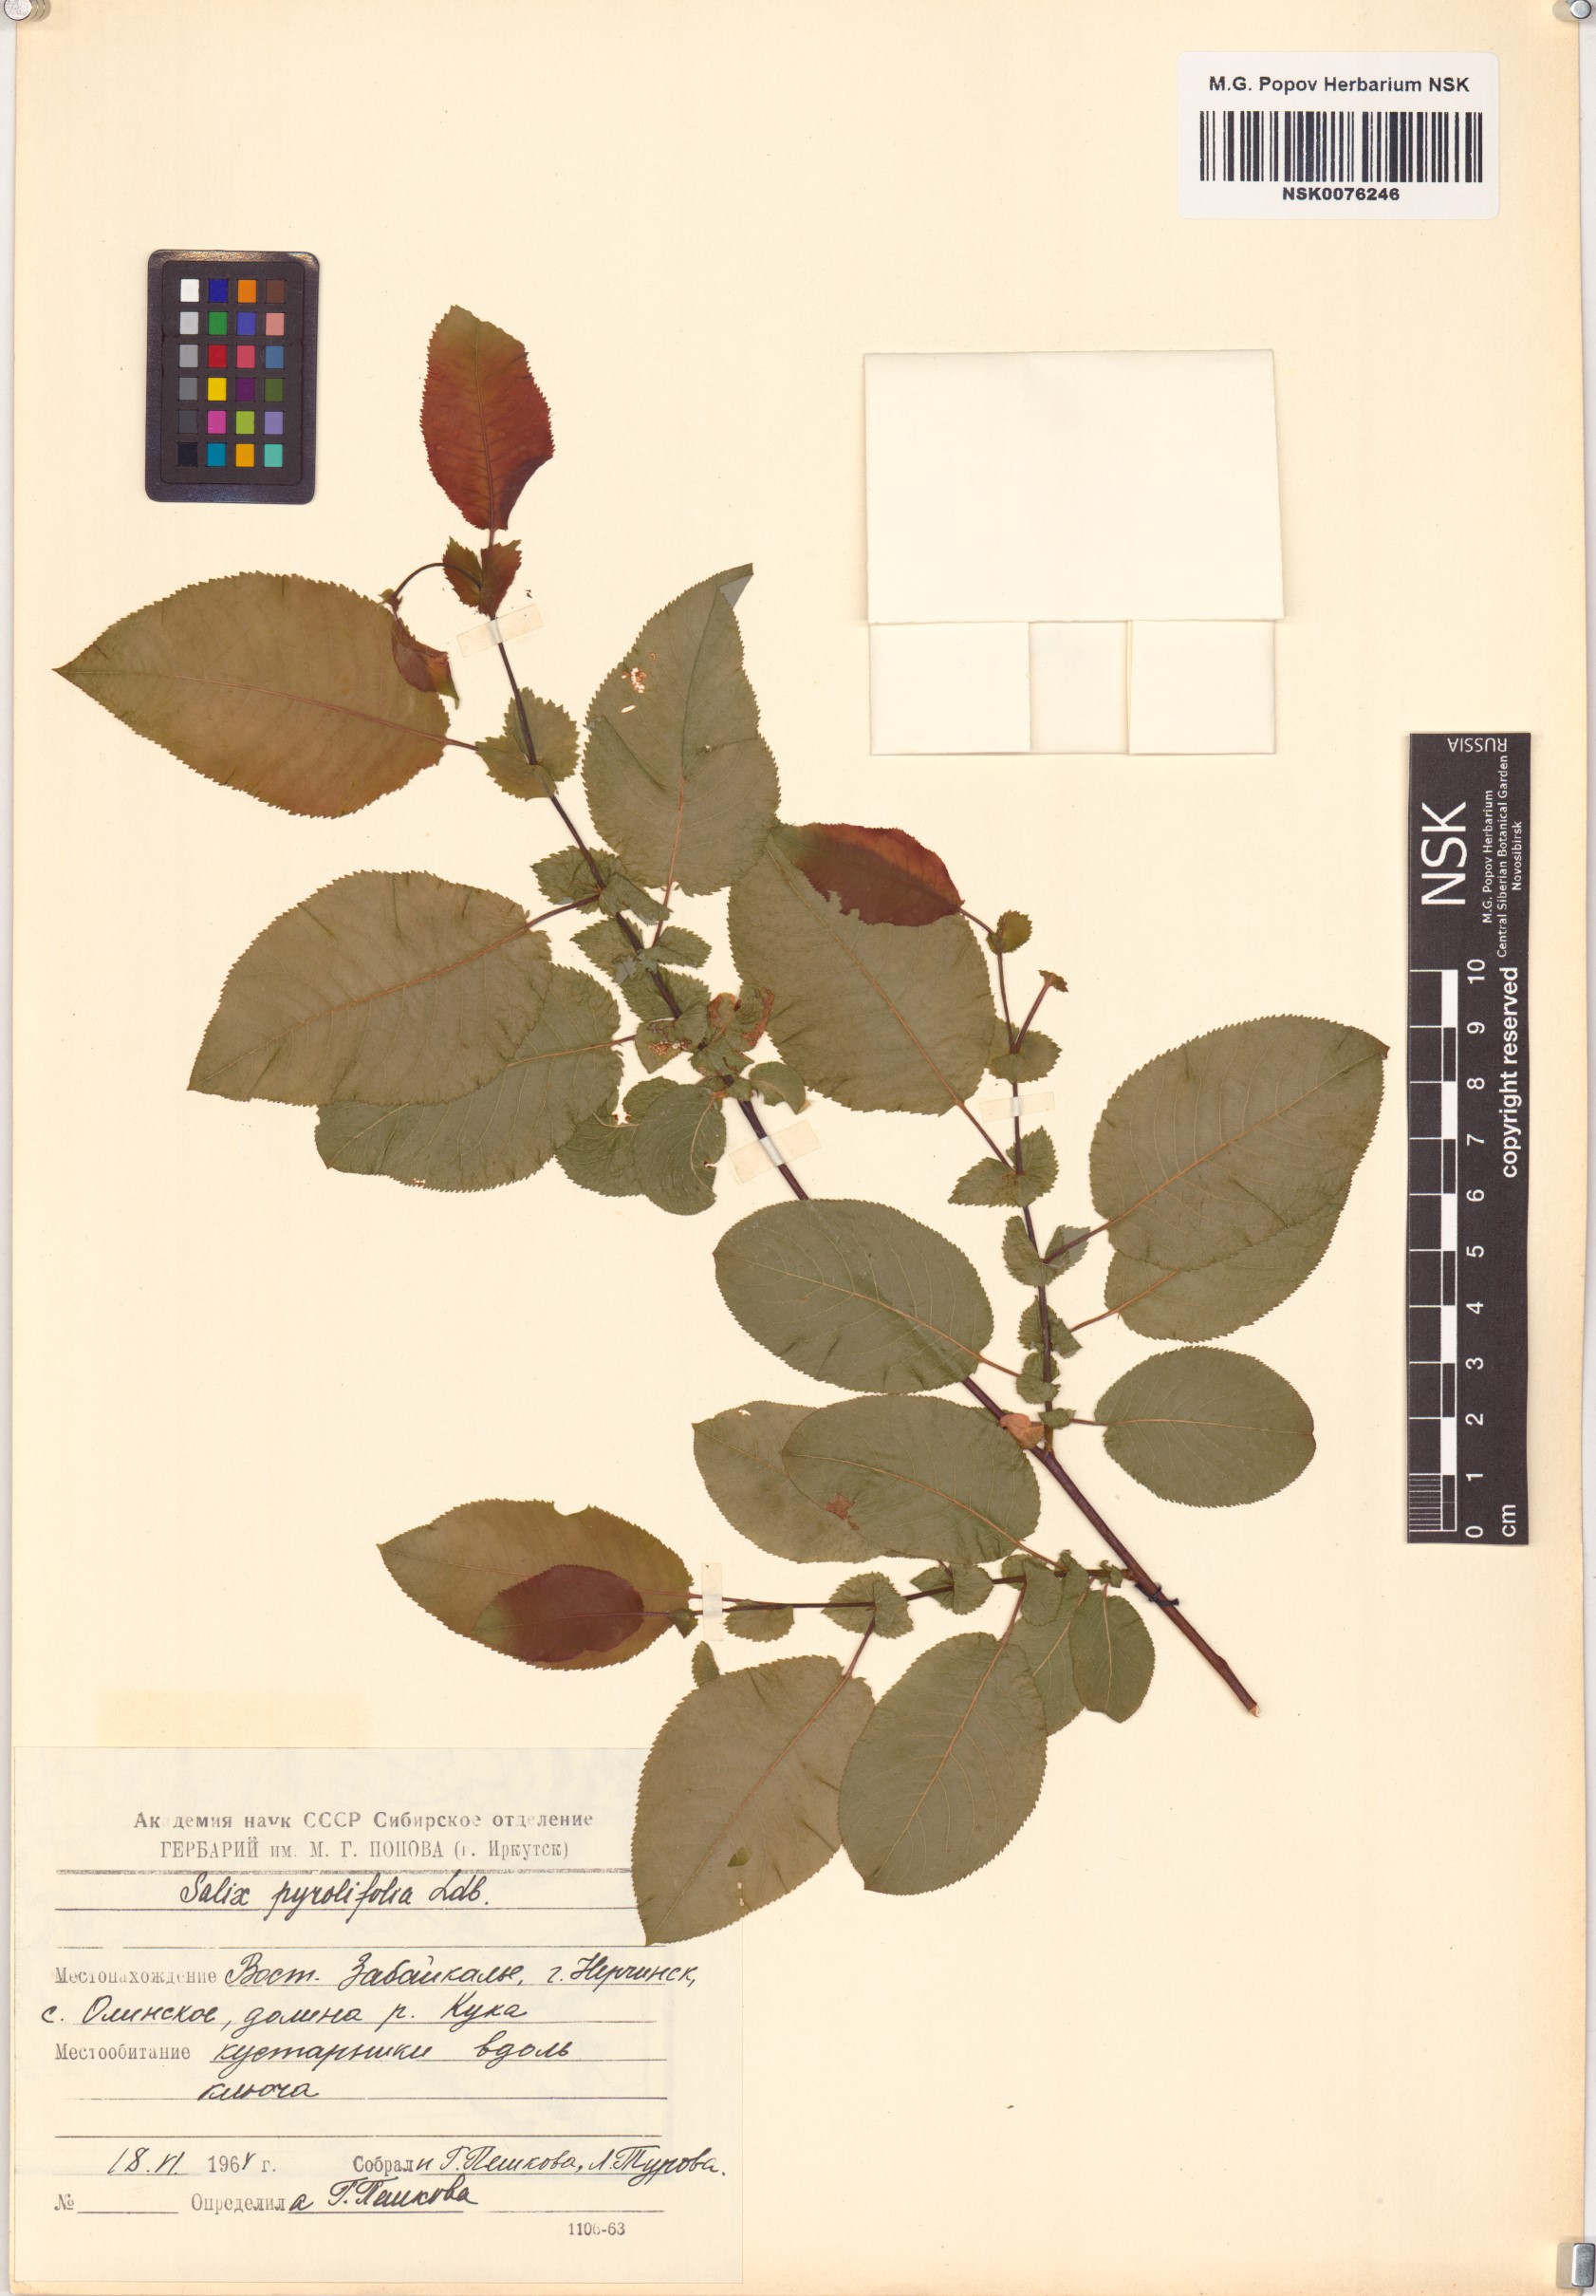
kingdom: Plantae
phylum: Tracheophyta
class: Magnoliopsida
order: Malpighiales
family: Salicaceae
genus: Salix
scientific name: Salix pyrolifolia
